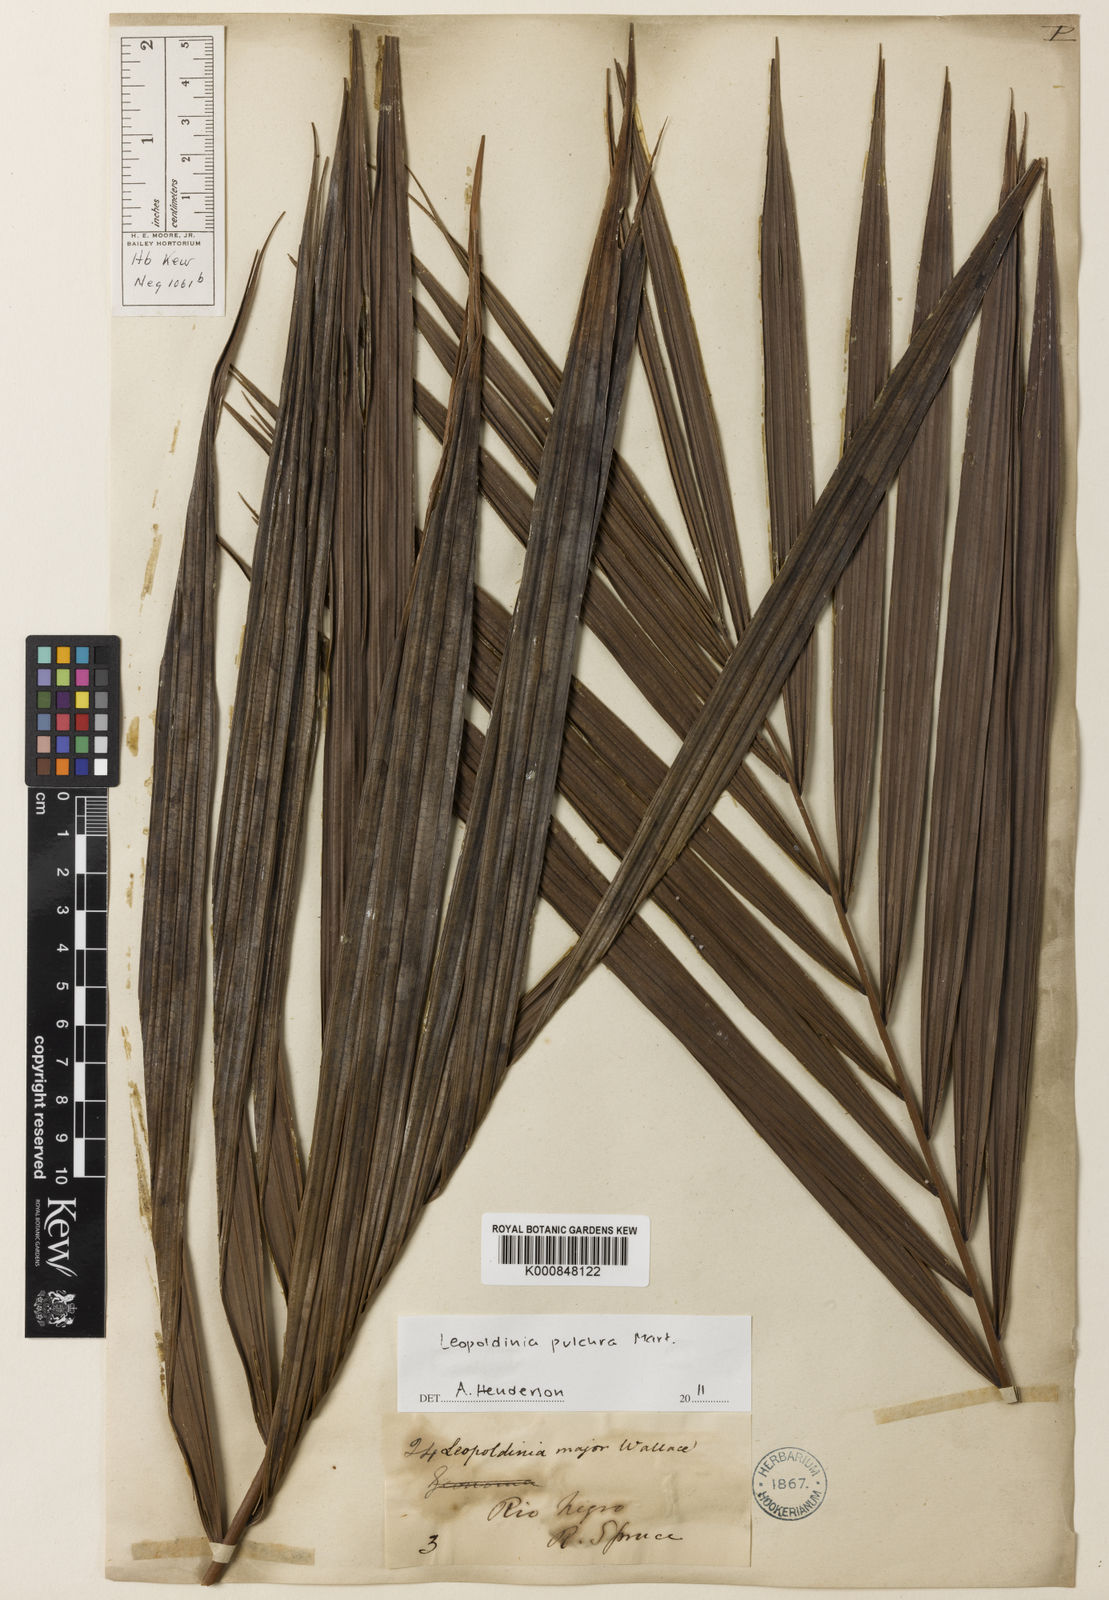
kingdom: Plantae
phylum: Tracheophyta
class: Liliopsida
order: Arecales
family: Arecaceae
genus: Leopoldinia
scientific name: Leopoldinia pulchra
